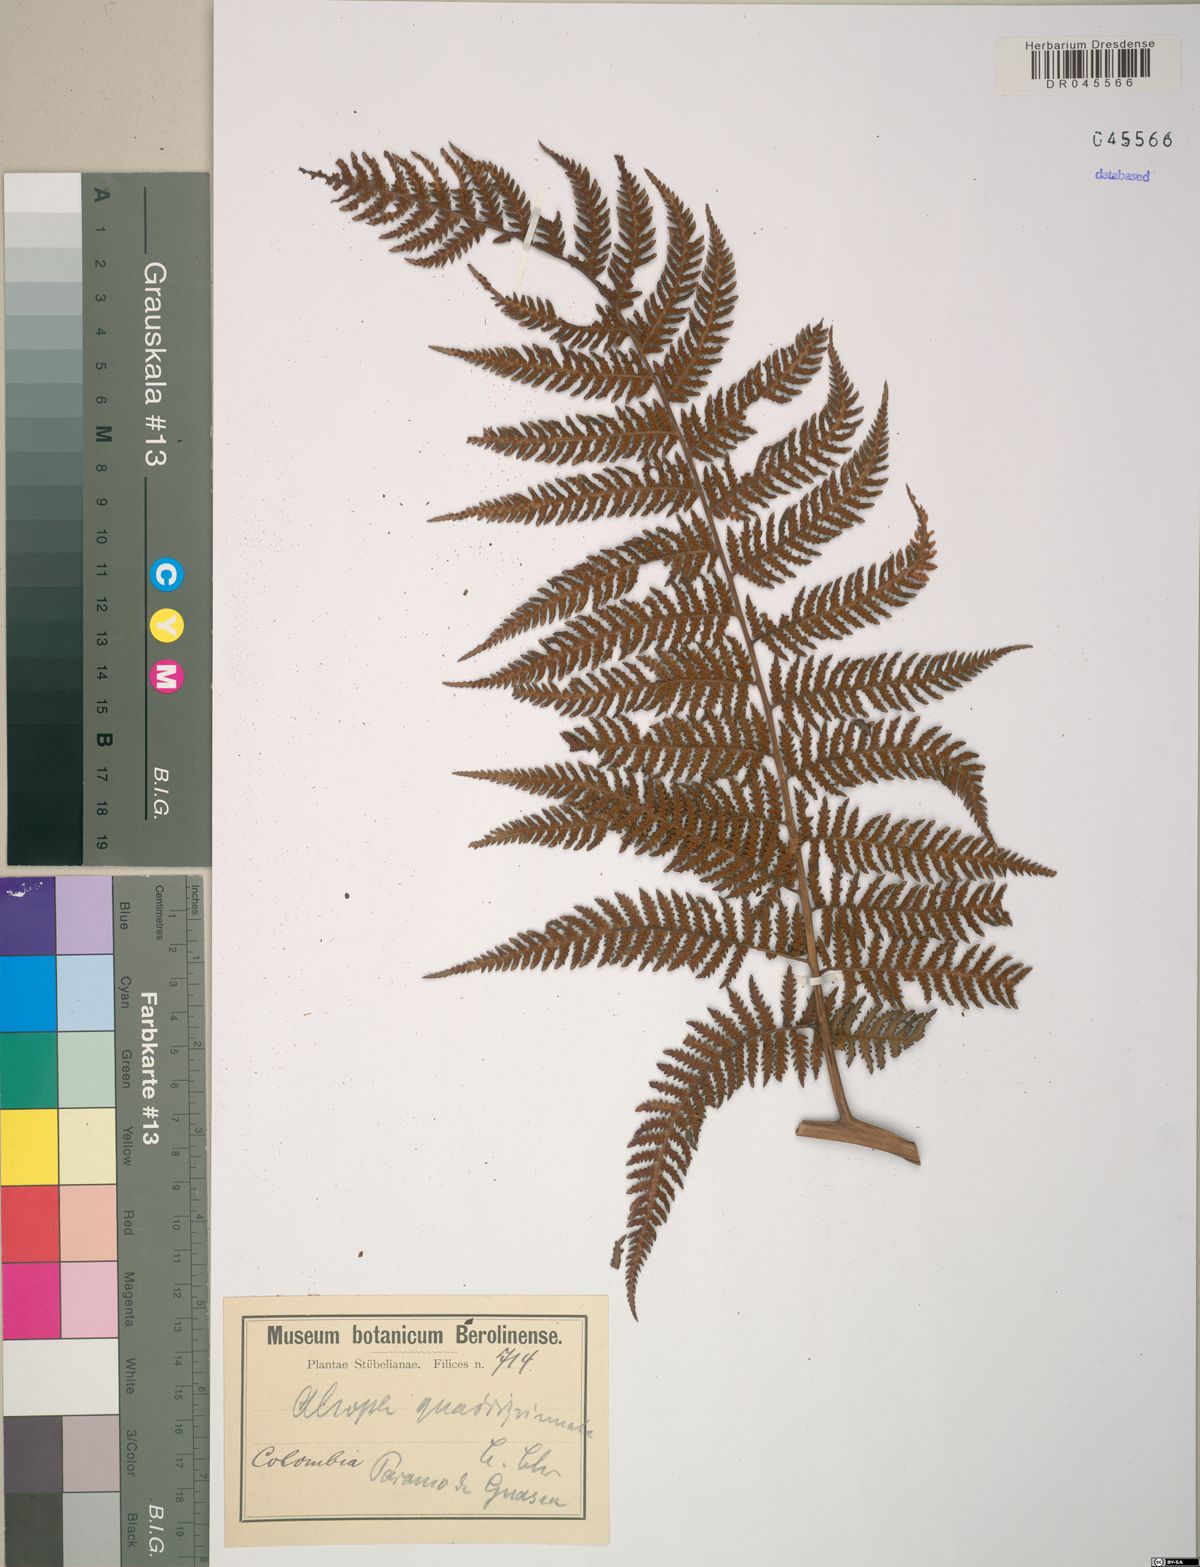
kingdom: Plantae
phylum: Tracheophyta
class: Polypodiopsida
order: Cyatheales
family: Dicksoniaceae
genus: Lophosoria
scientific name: Lophosoria quadripinnata
